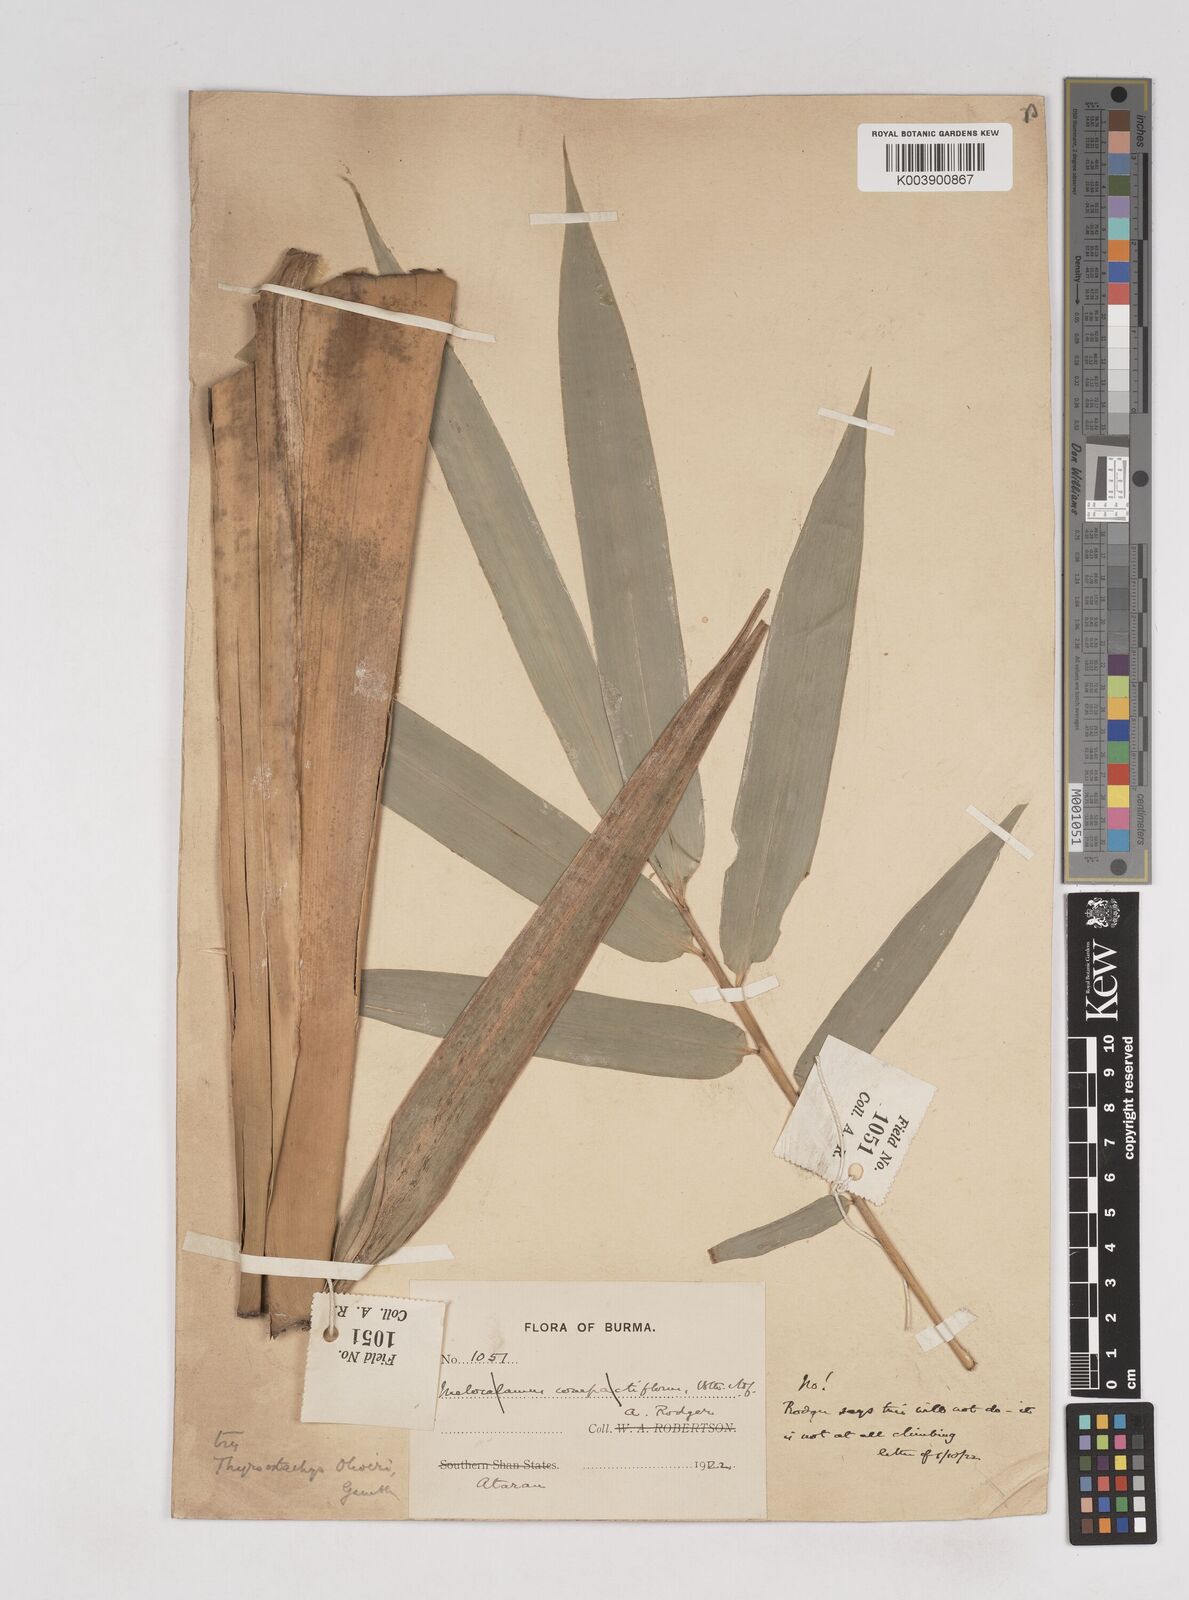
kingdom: Plantae
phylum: Tracheophyta
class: Liliopsida
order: Poales
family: Poaceae
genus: Thyrsostachys
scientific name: Thyrsostachys oliveri
